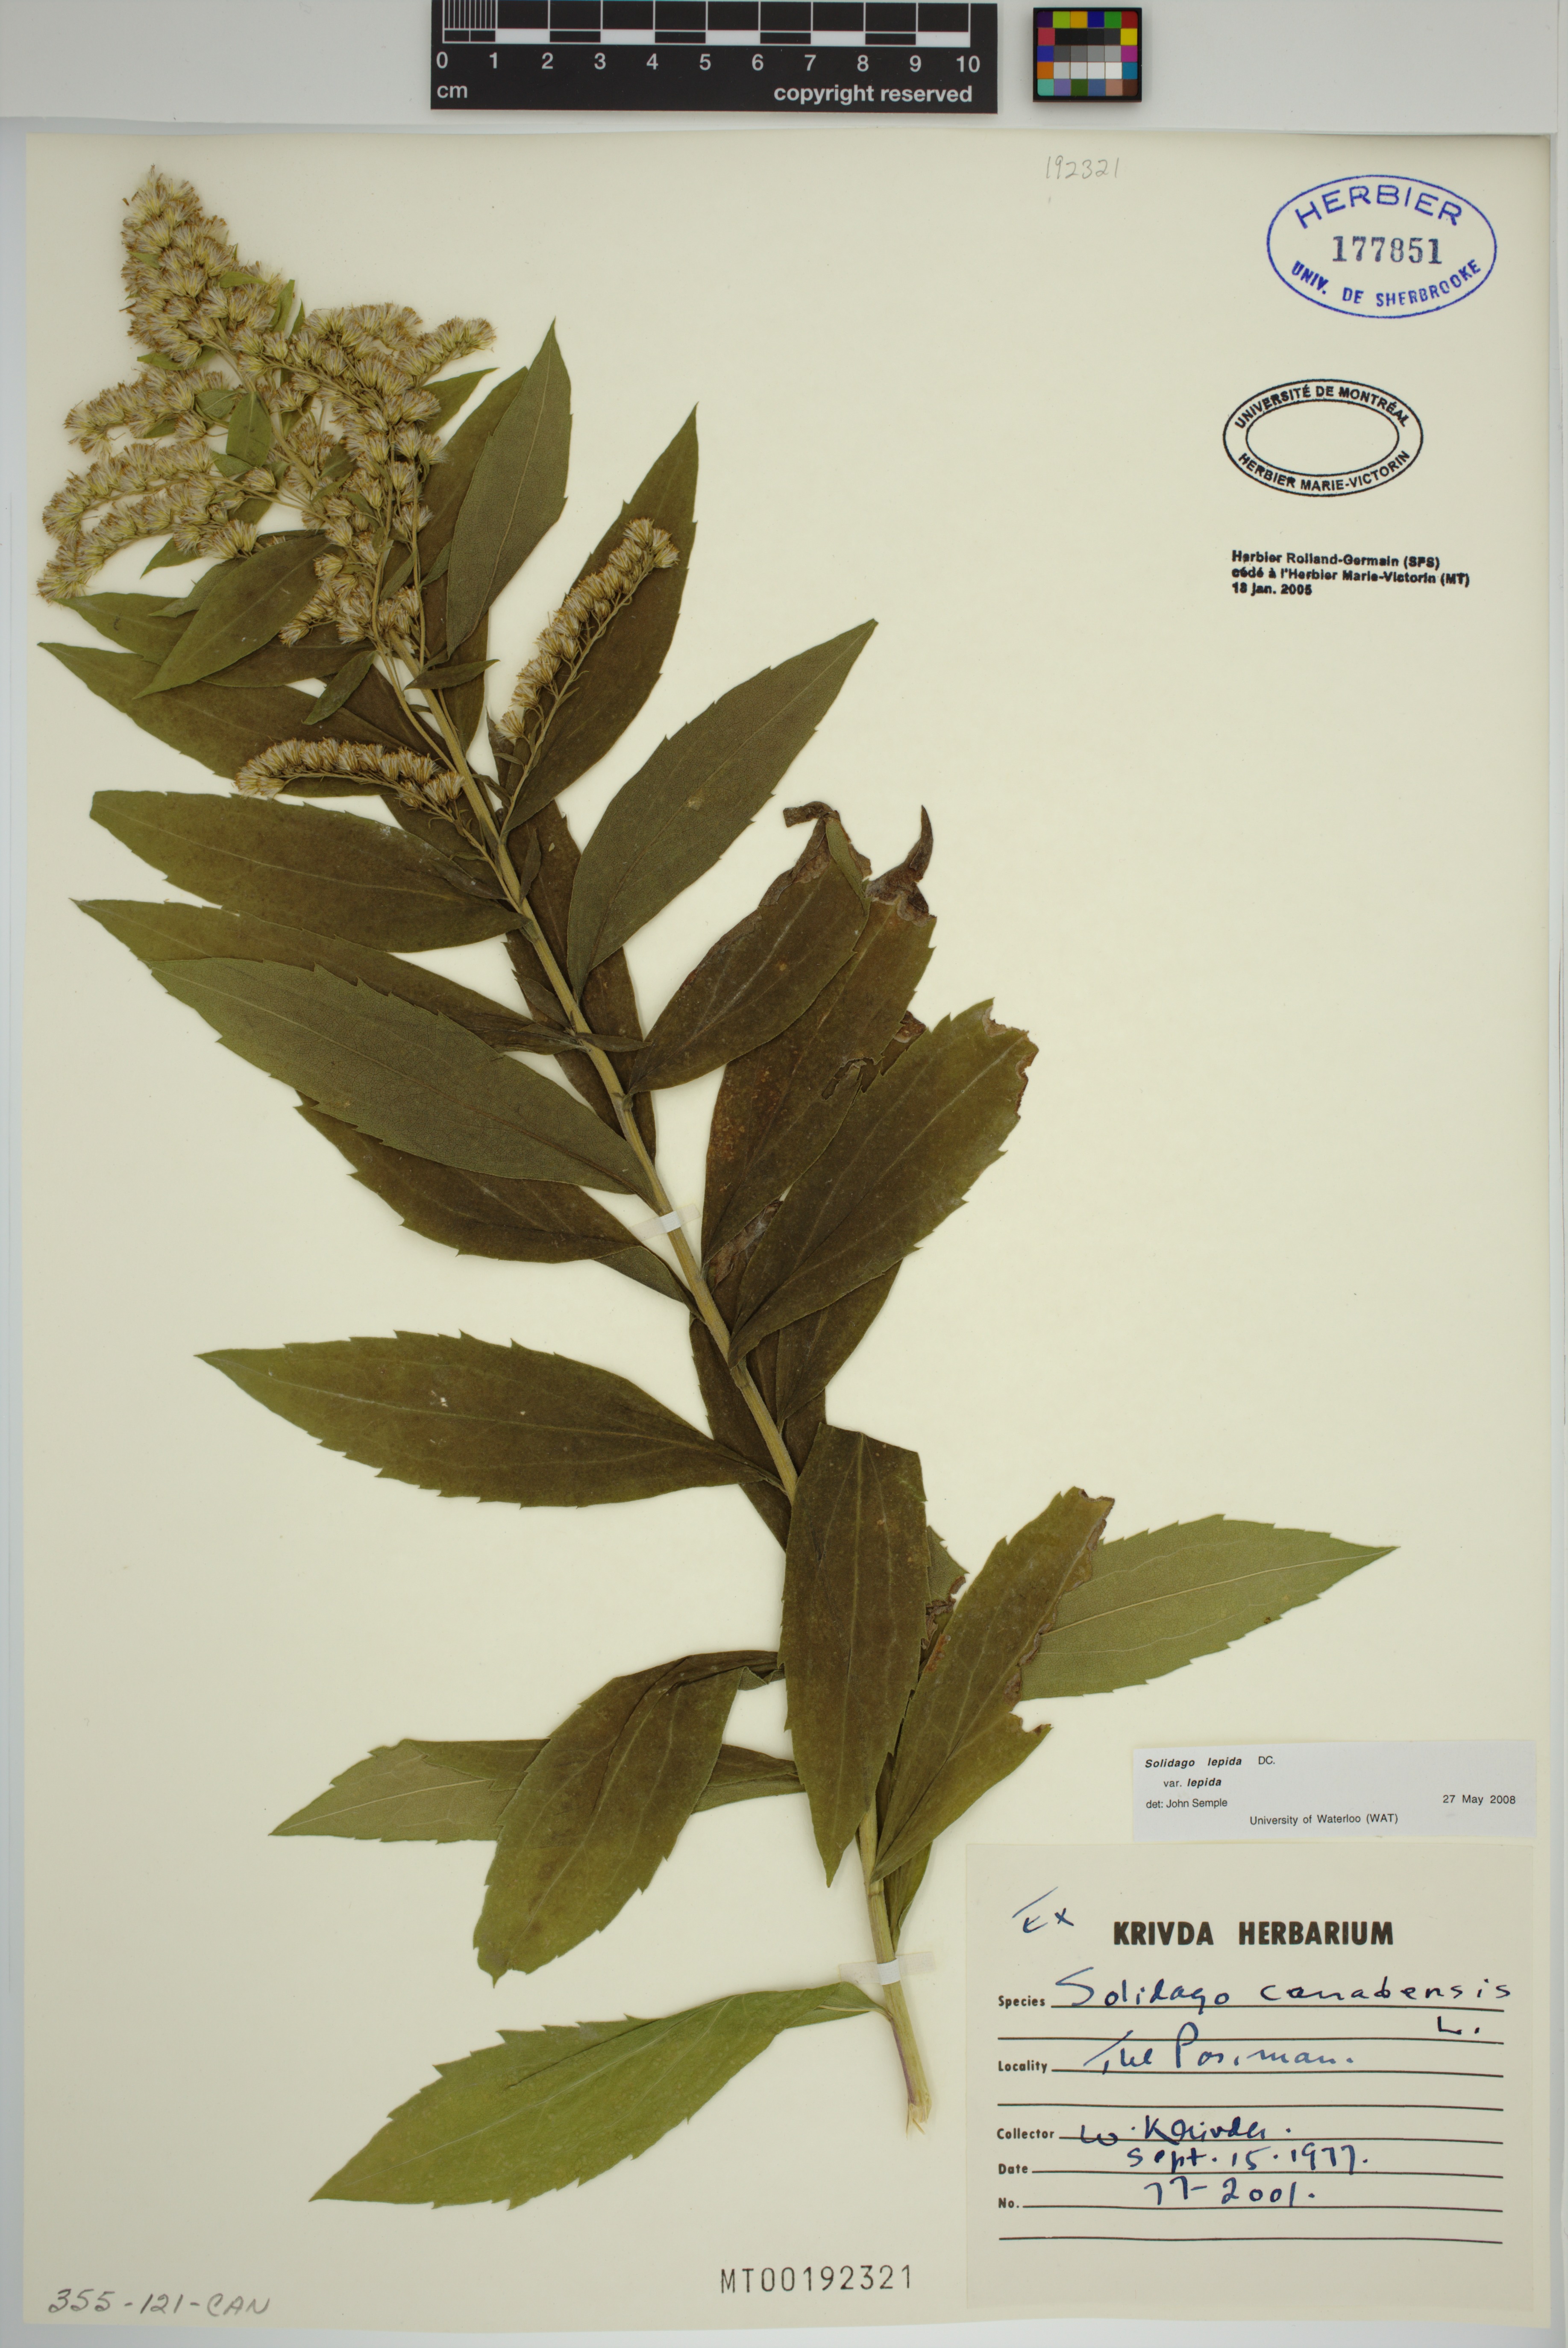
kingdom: Plantae
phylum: Tracheophyta
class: Magnoliopsida
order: Asterales
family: Asteraceae
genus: Solidago
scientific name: Solidago lepida
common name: Western canada goldenrod
